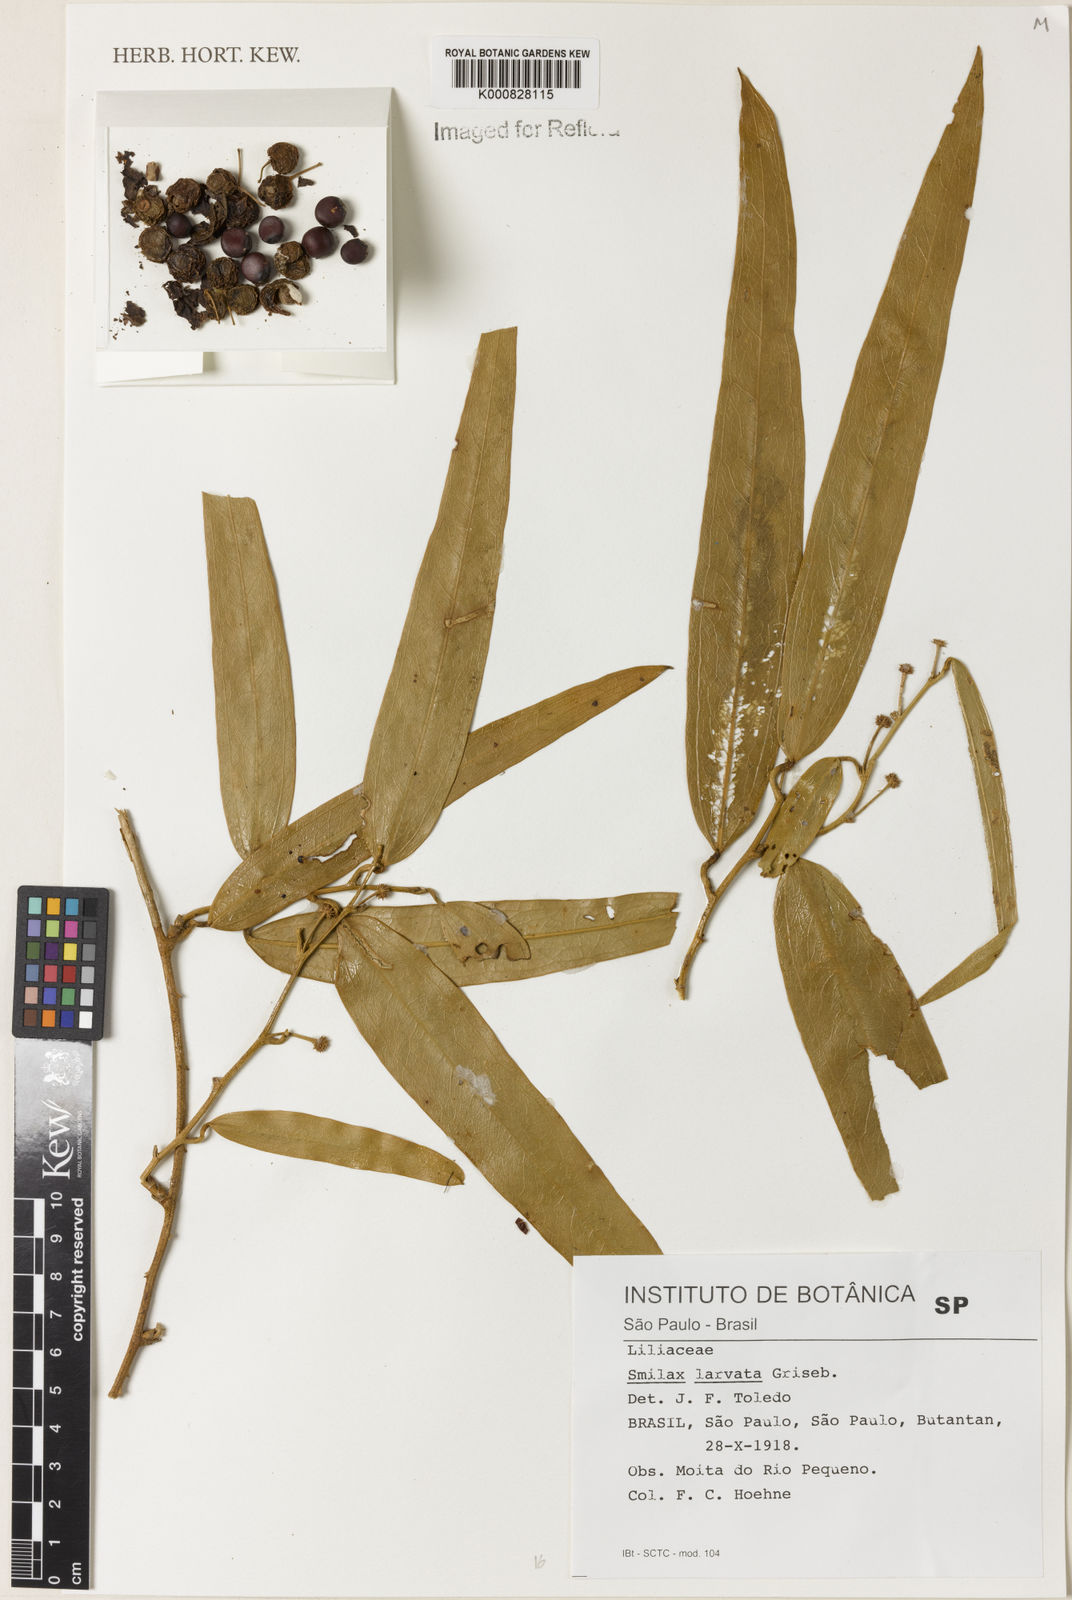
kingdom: Plantae
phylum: Tracheophyta
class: Liliopsida
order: Liliales
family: Smilacaceae
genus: Smilax
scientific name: Smilax larvata
